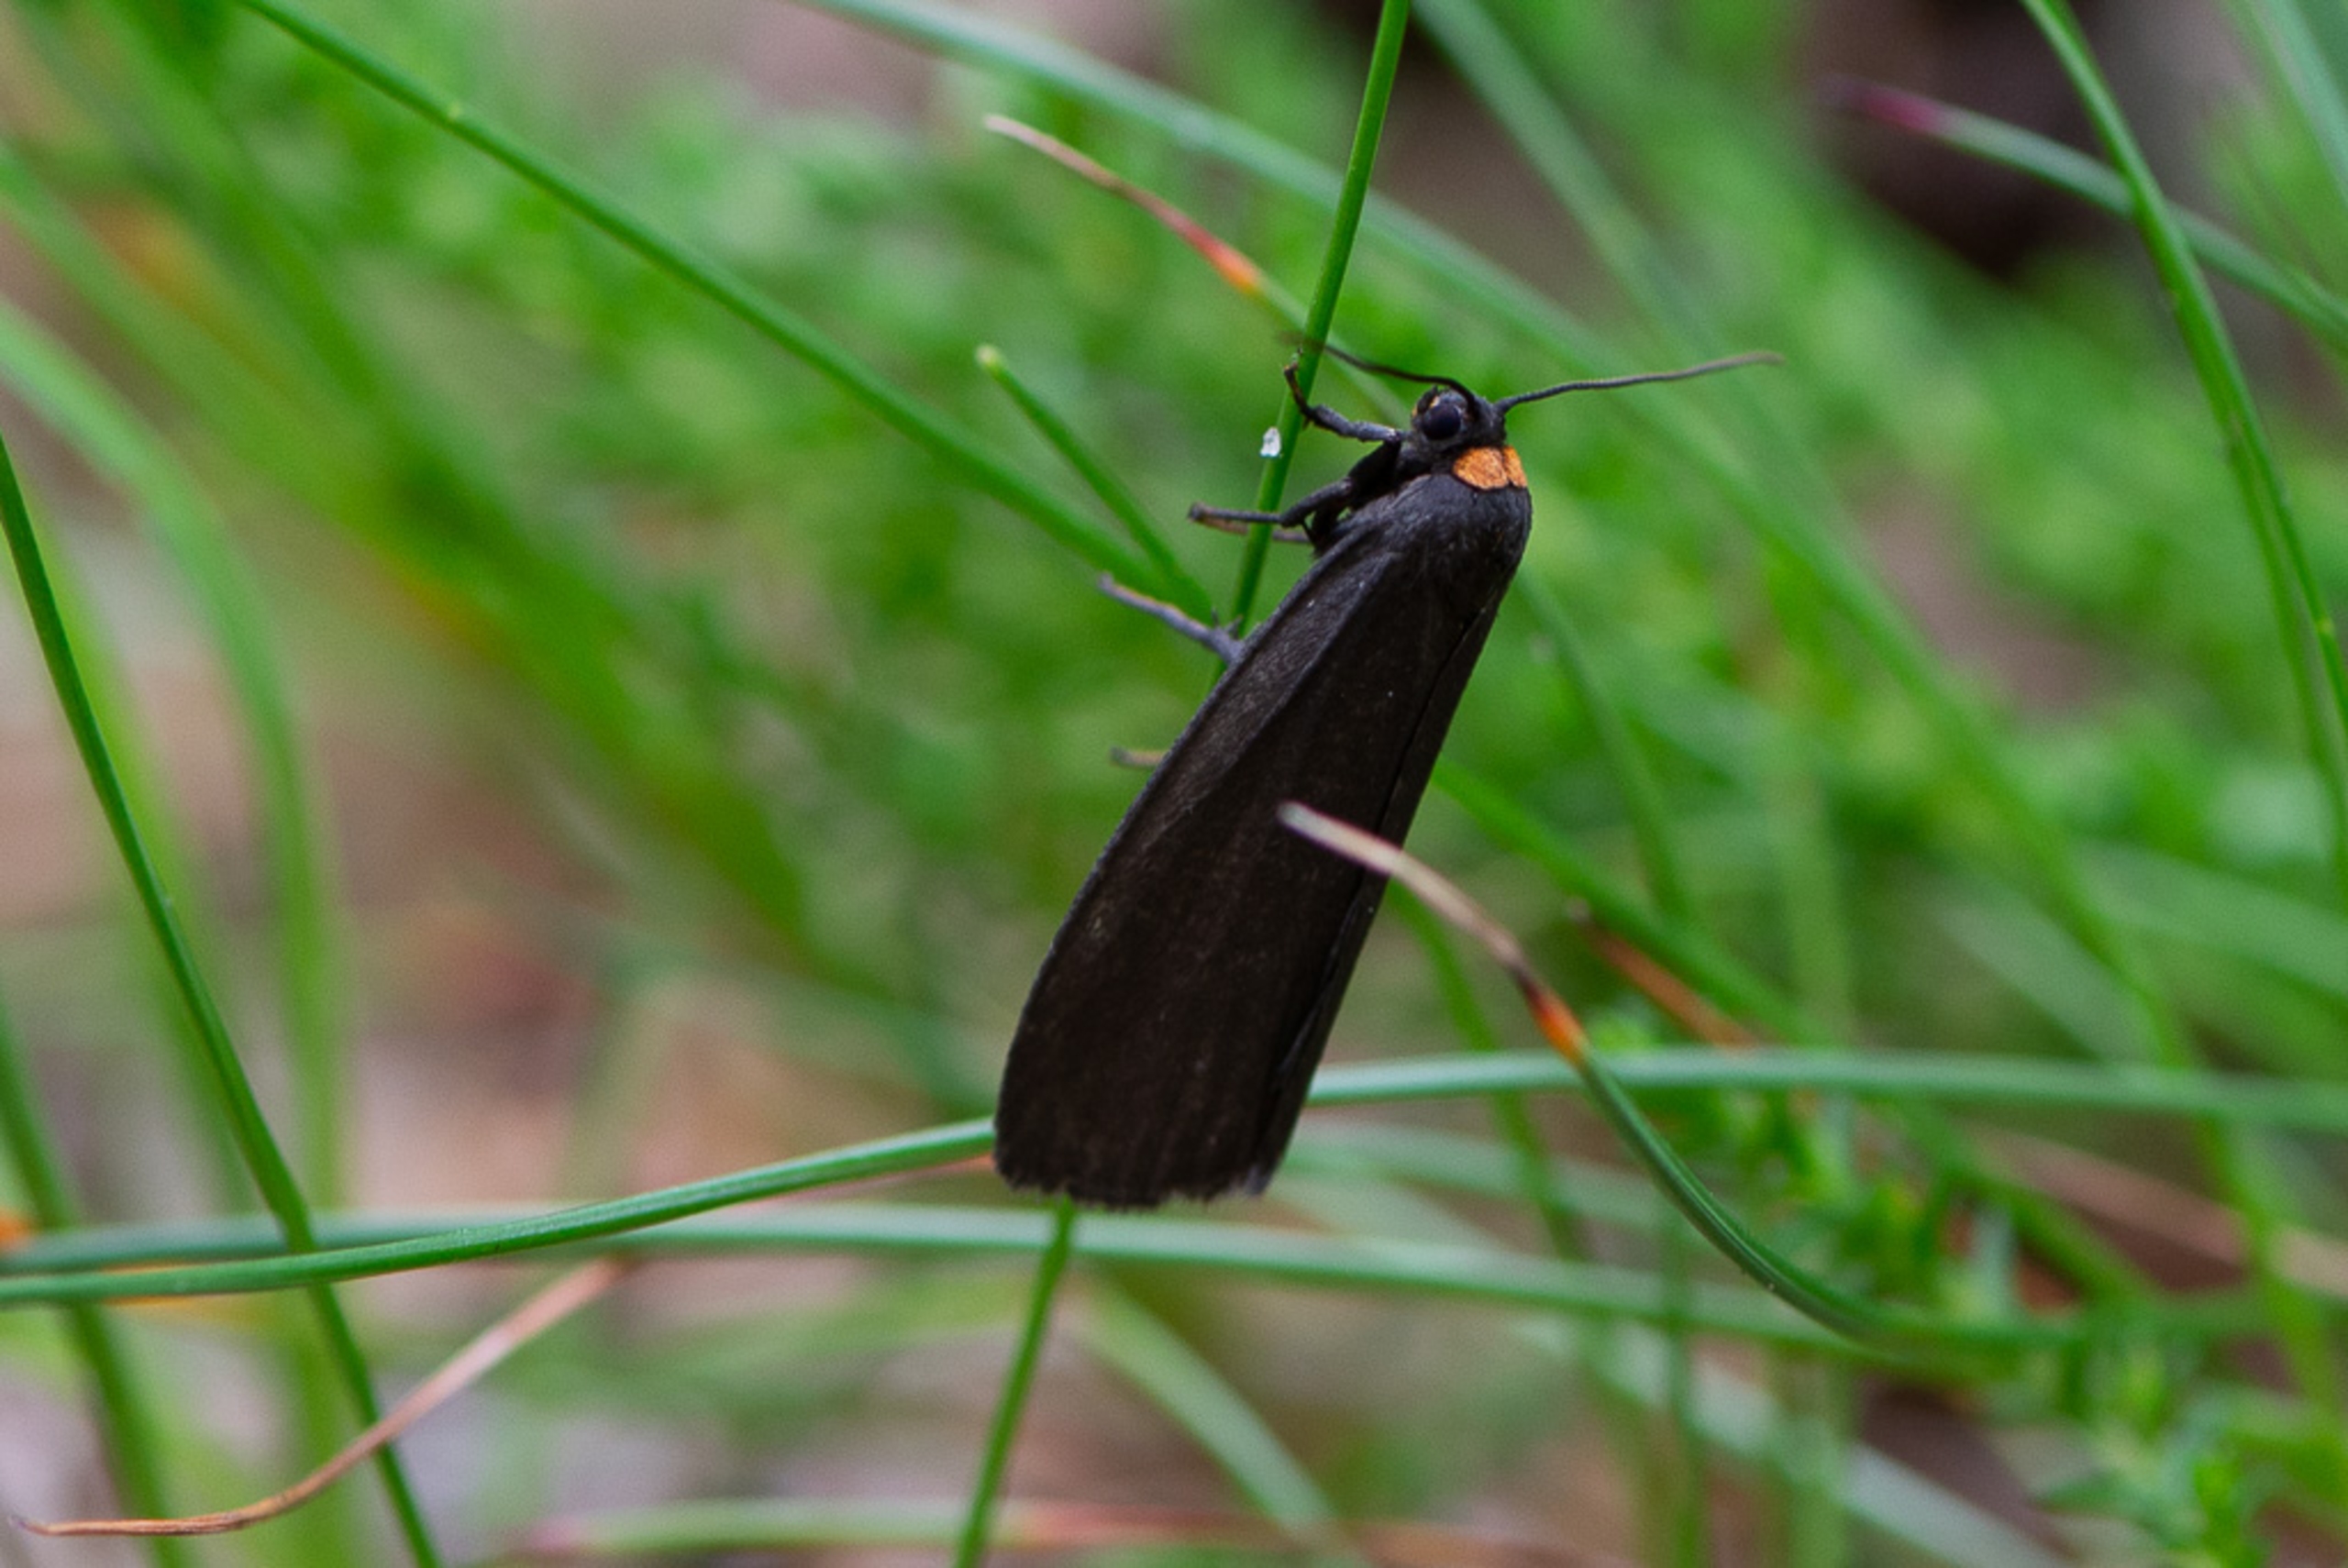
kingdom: Animalia
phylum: Arthropoda
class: Insecta
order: Lepidoptera
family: Erebidae
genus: Atolmis
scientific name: Atolmis rubricollis
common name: Blodnakke
